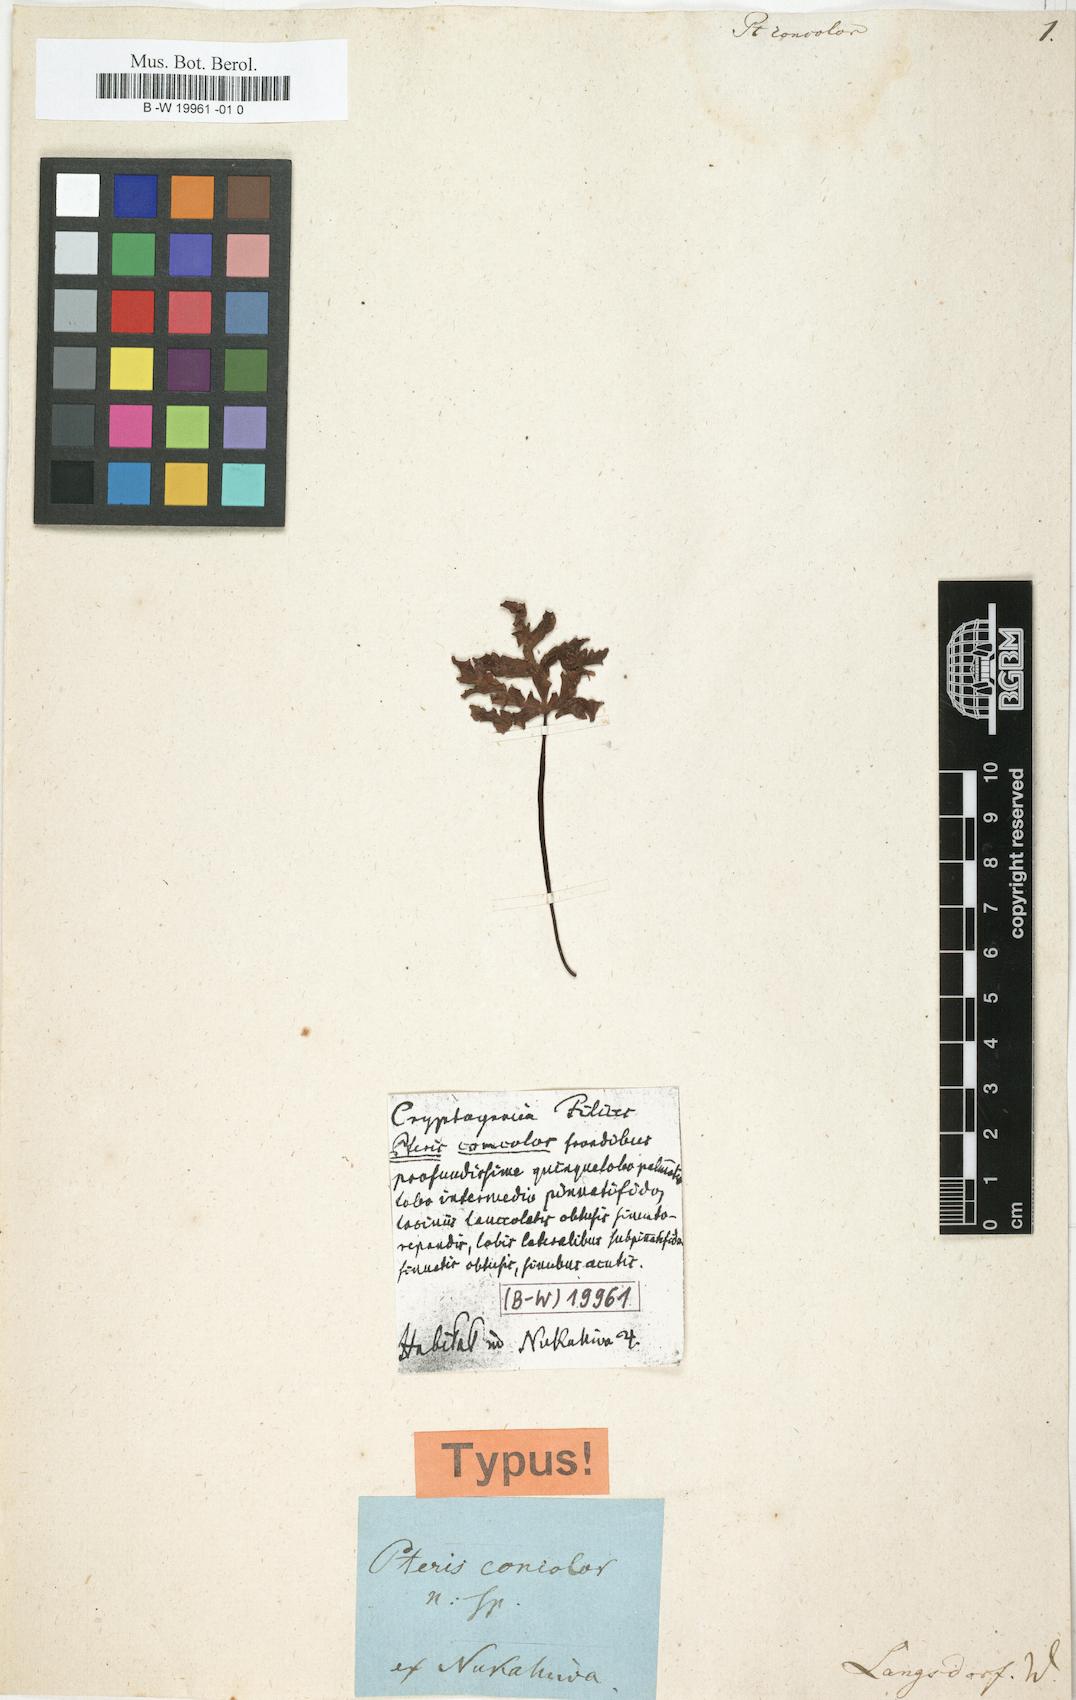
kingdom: Plantae
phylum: Tracheophyta
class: Polypodiopsida
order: Polypodiales
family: Pteridaceae
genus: Doryopteris
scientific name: Doryopteris concolor
